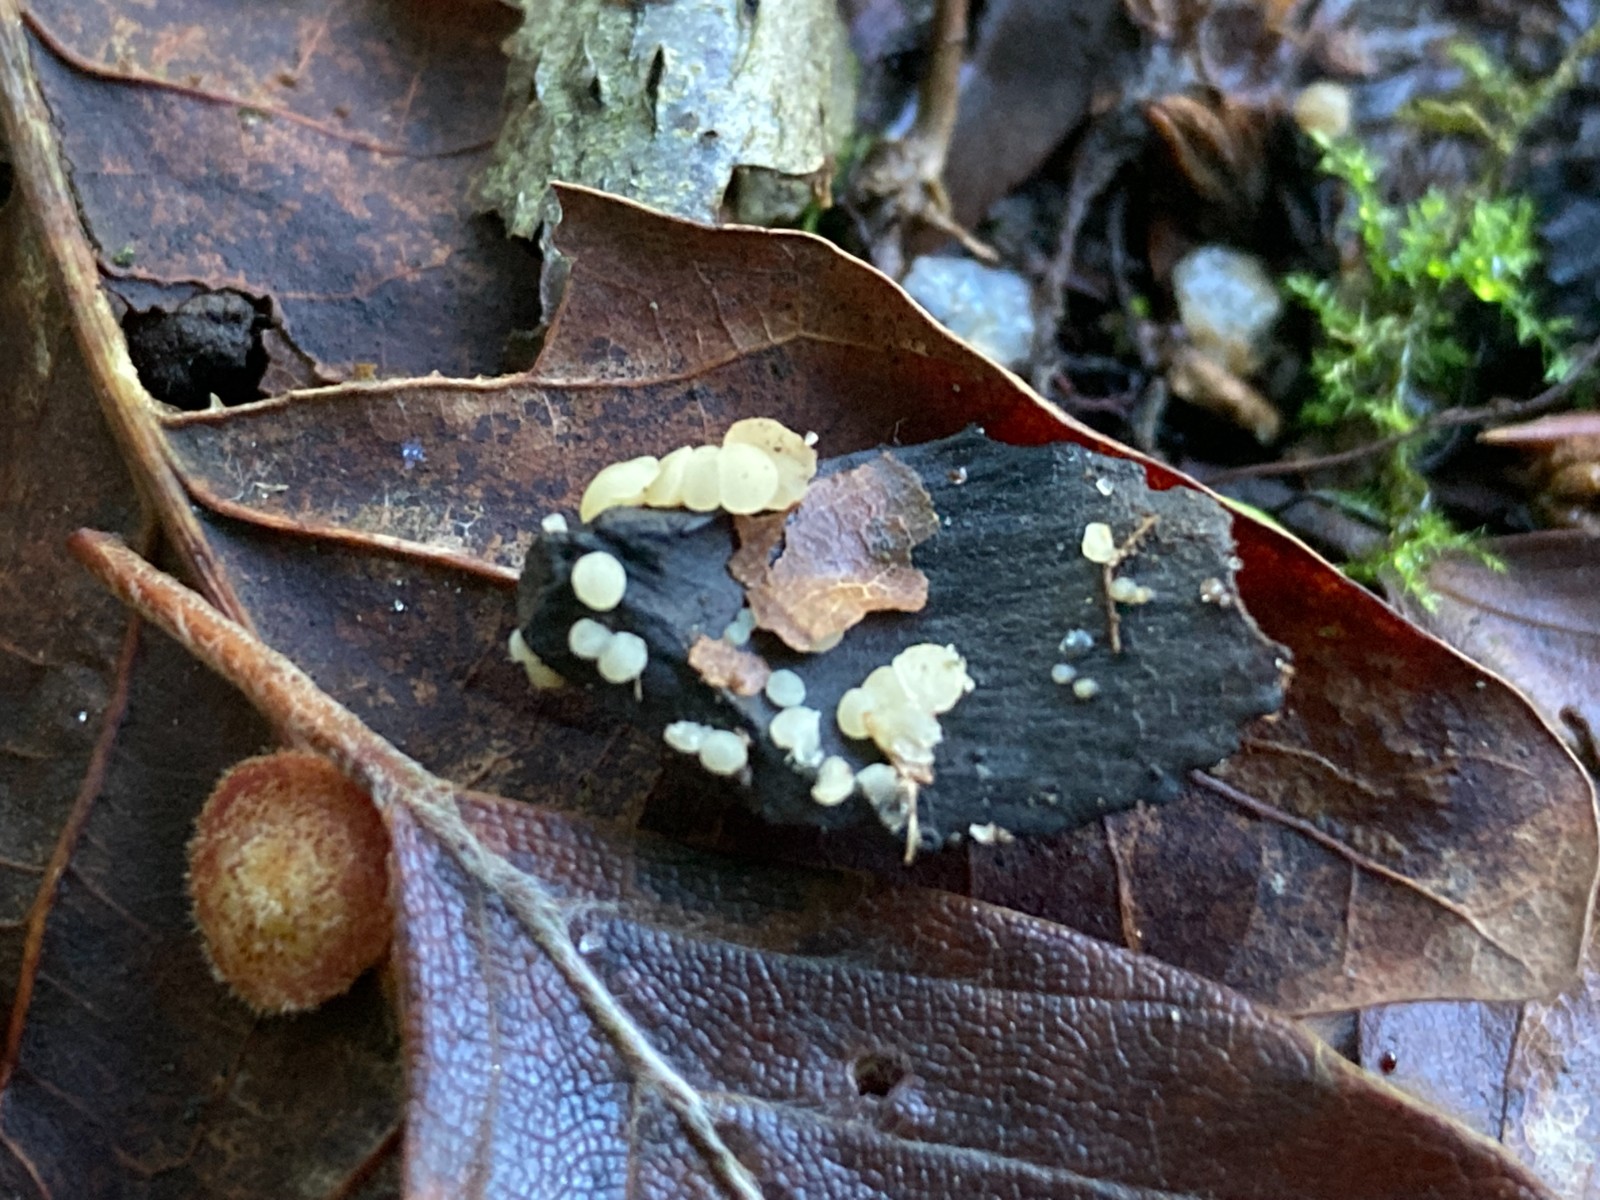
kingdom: Fungi
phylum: Ascomycota
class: Leotiomycetes
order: Helotiales
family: Helotiaceae
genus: Hymenoscyphus
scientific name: Hymenoscyphus fagineus
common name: vellugtende stilkskive
